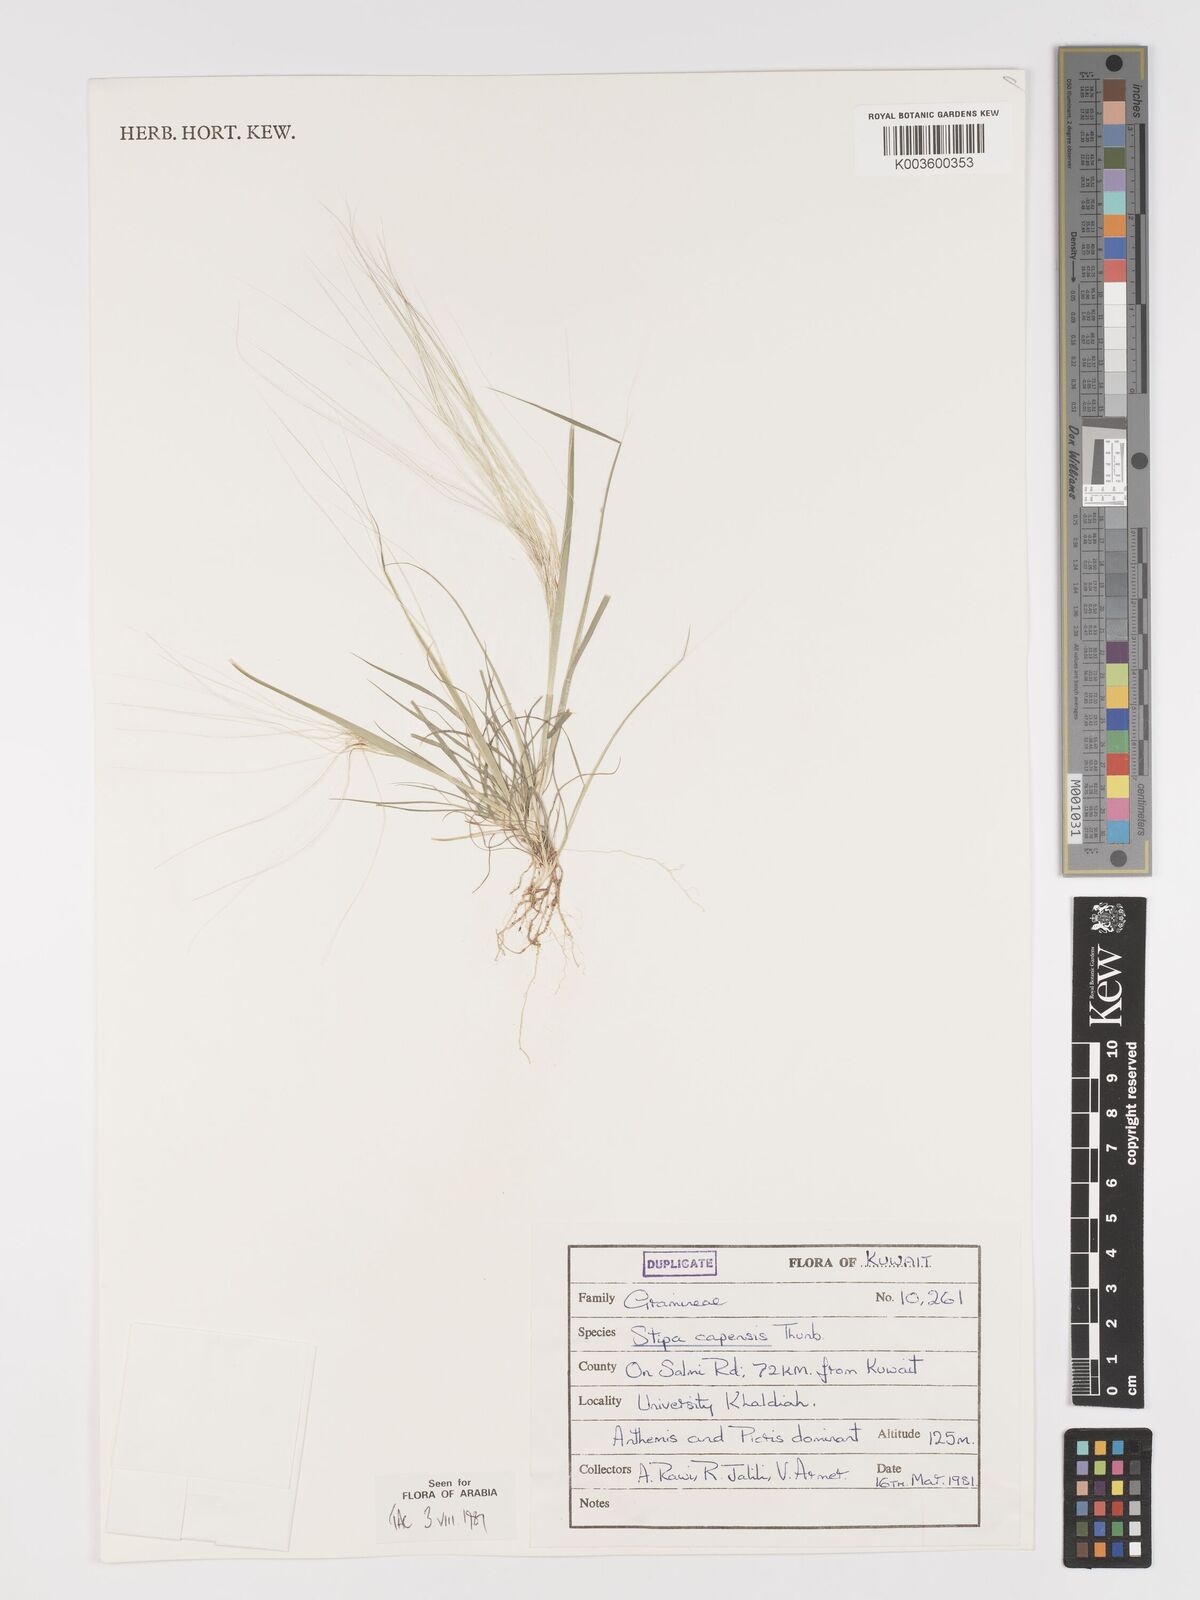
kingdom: Plantae
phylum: Tracheophyta
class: Liliopsida
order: Poales
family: Poaceae
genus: Stipellula
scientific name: Stipellula capensis
